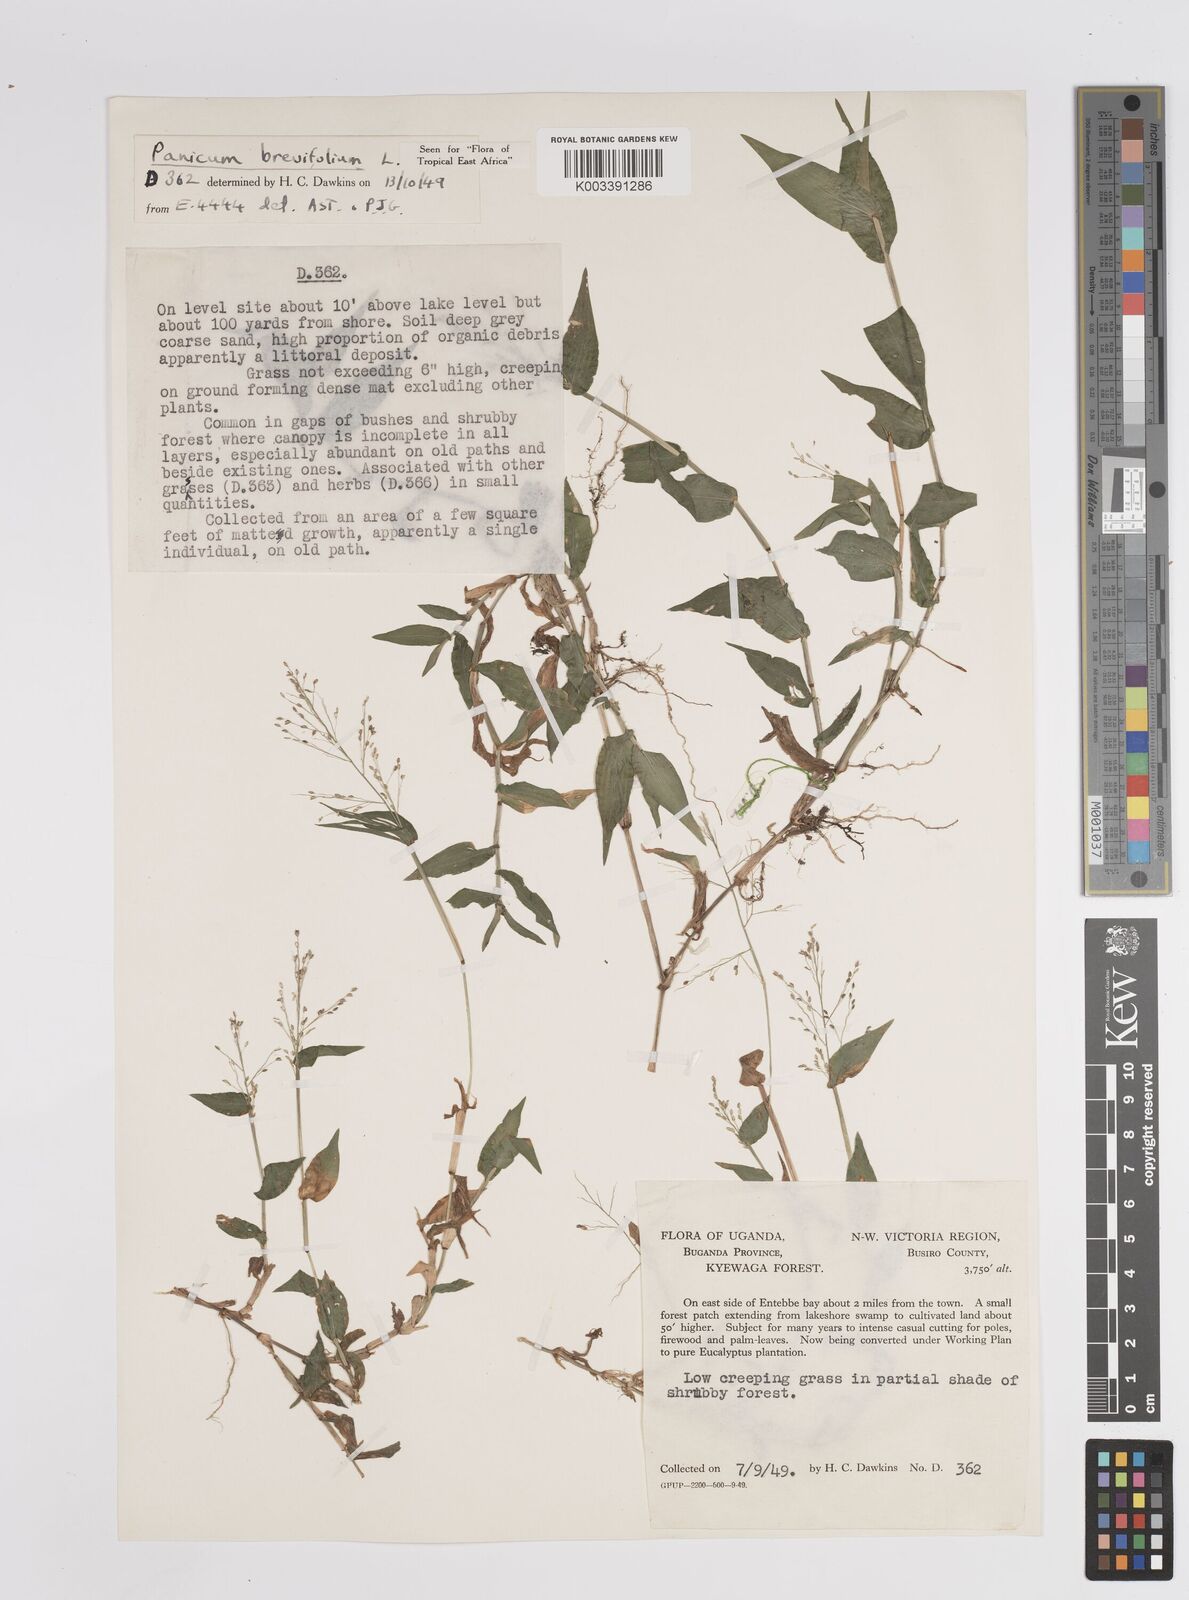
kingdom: Plantae
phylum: Tracheophyta
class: Liliopsida
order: Poales
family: Poaceae
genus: Panicum
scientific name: Panicum brevifolium
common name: Shortleaf panic grass
